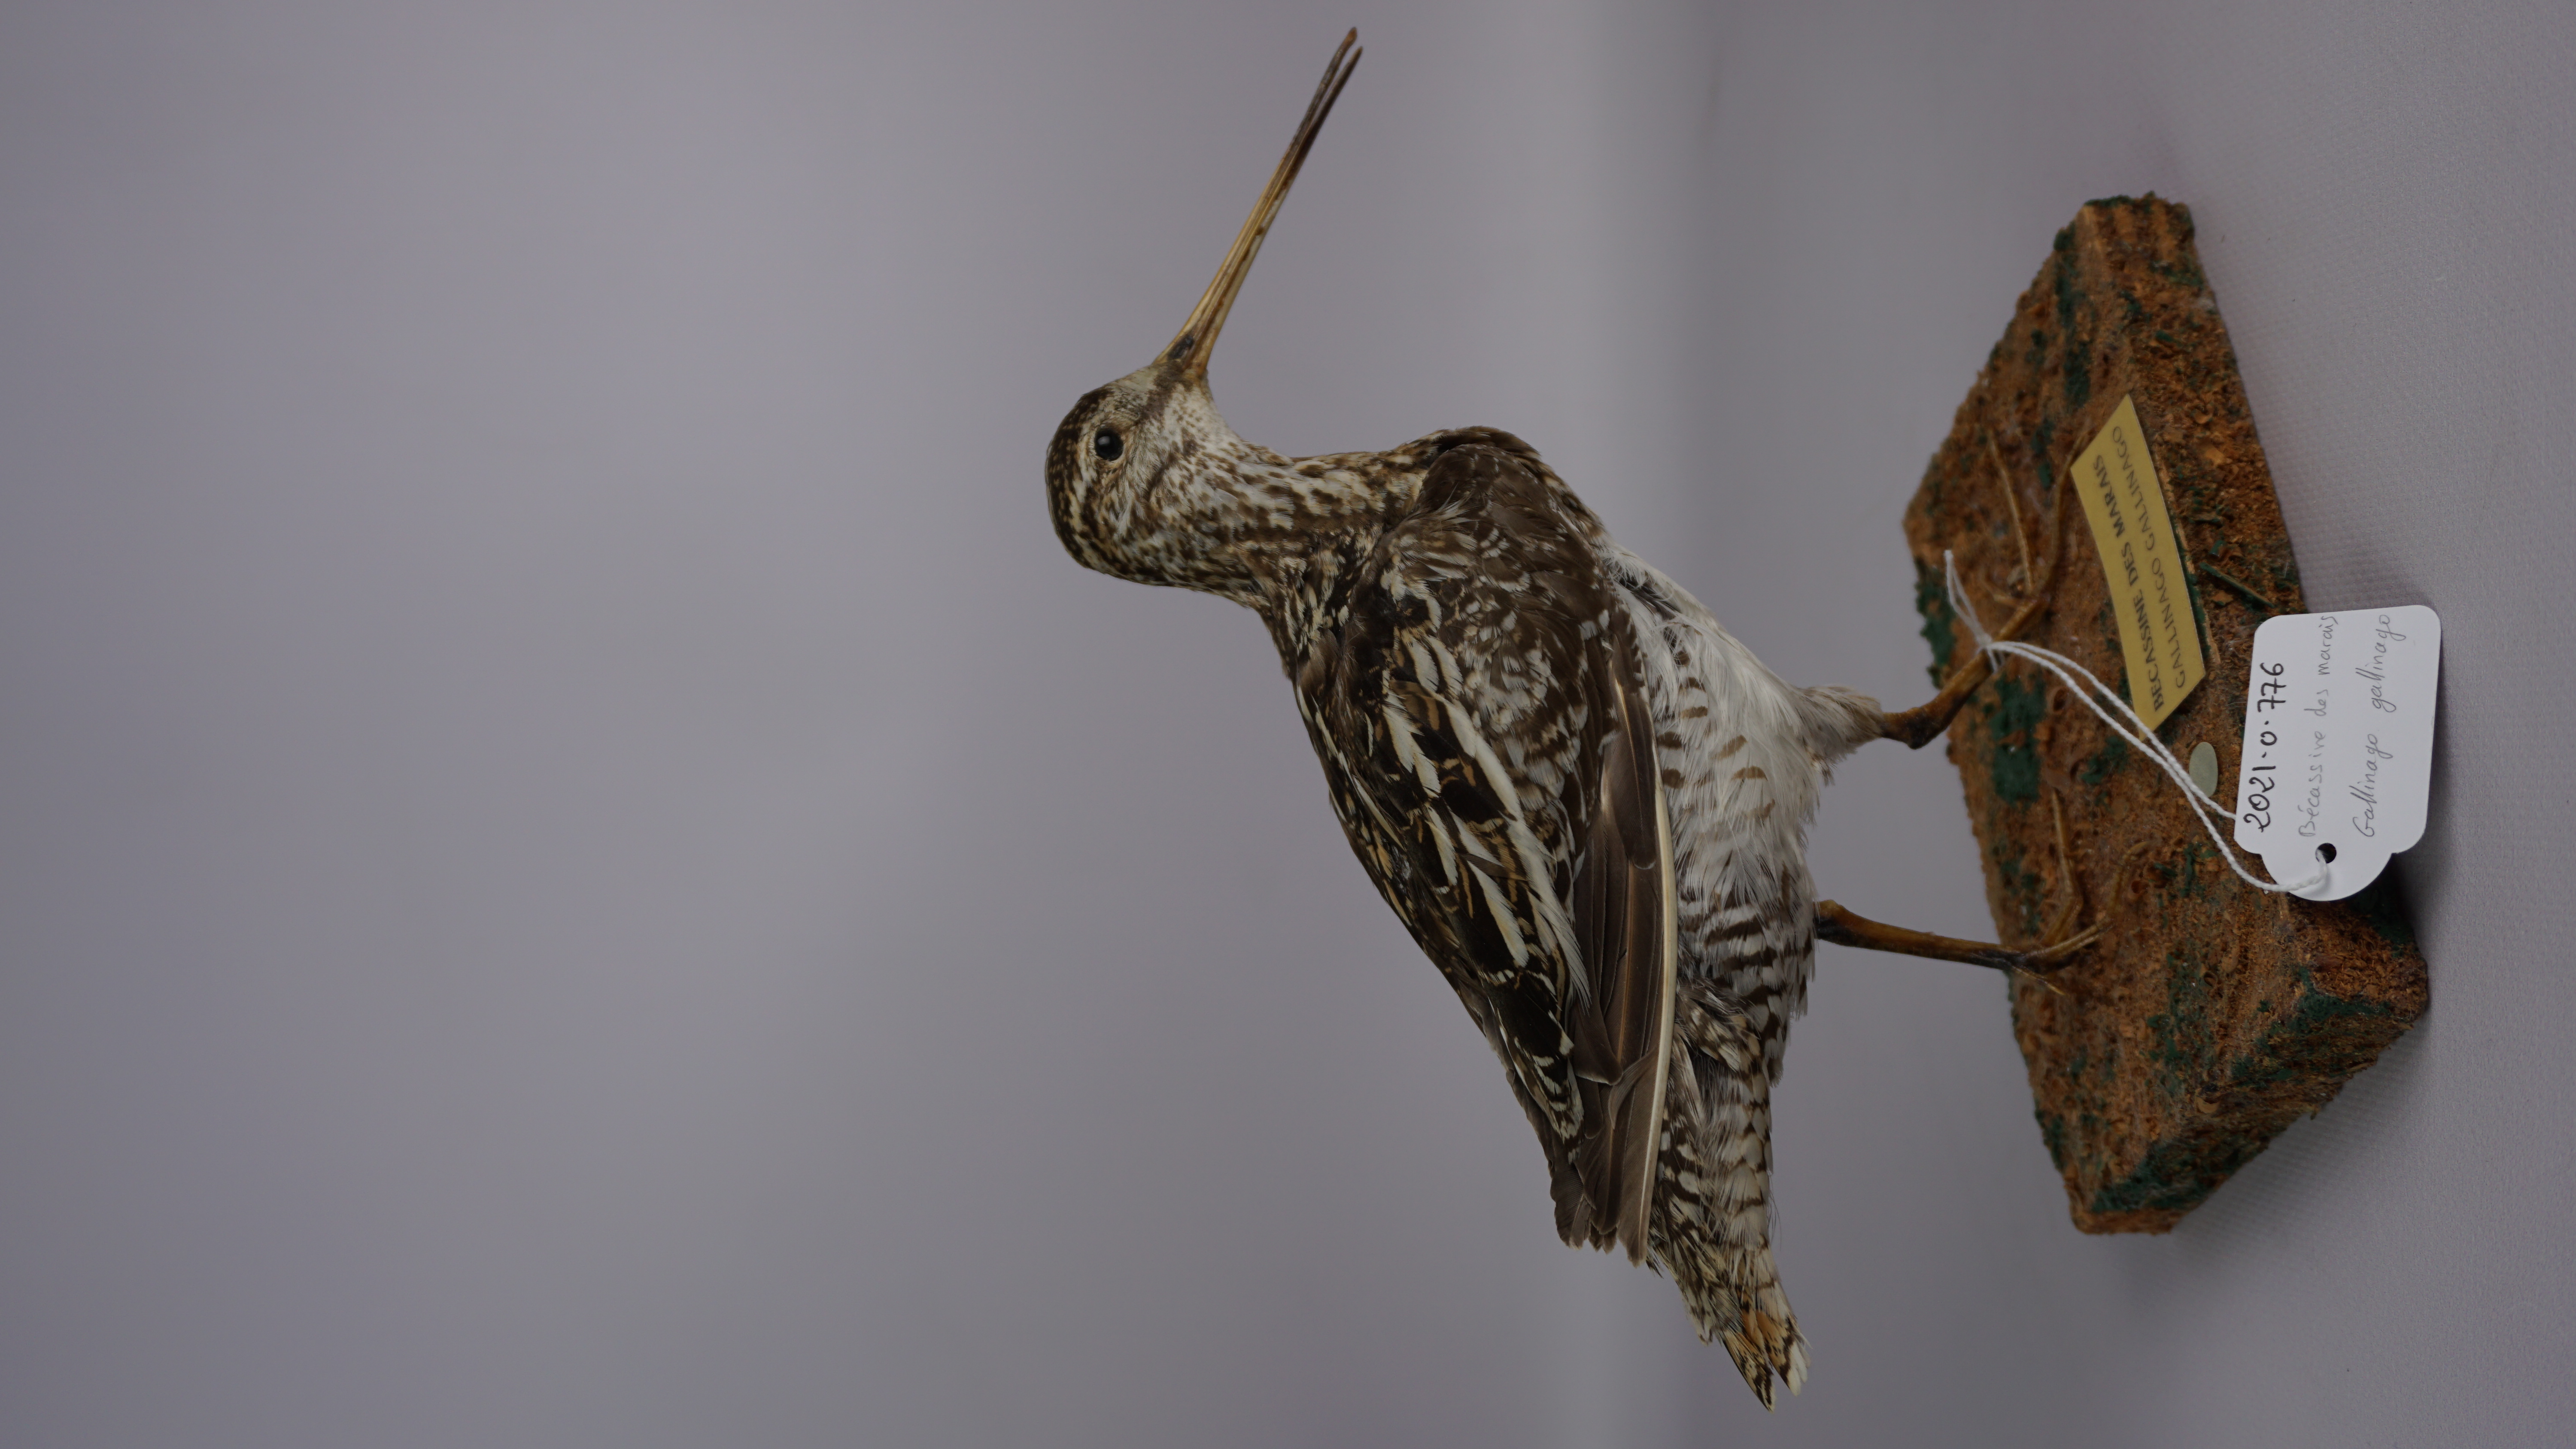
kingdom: Animalia
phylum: Chordata
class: Aves
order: Charadriiformes
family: Scolopacidae
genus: Gallinago
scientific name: Gallinago gallinago
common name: Common snipe
